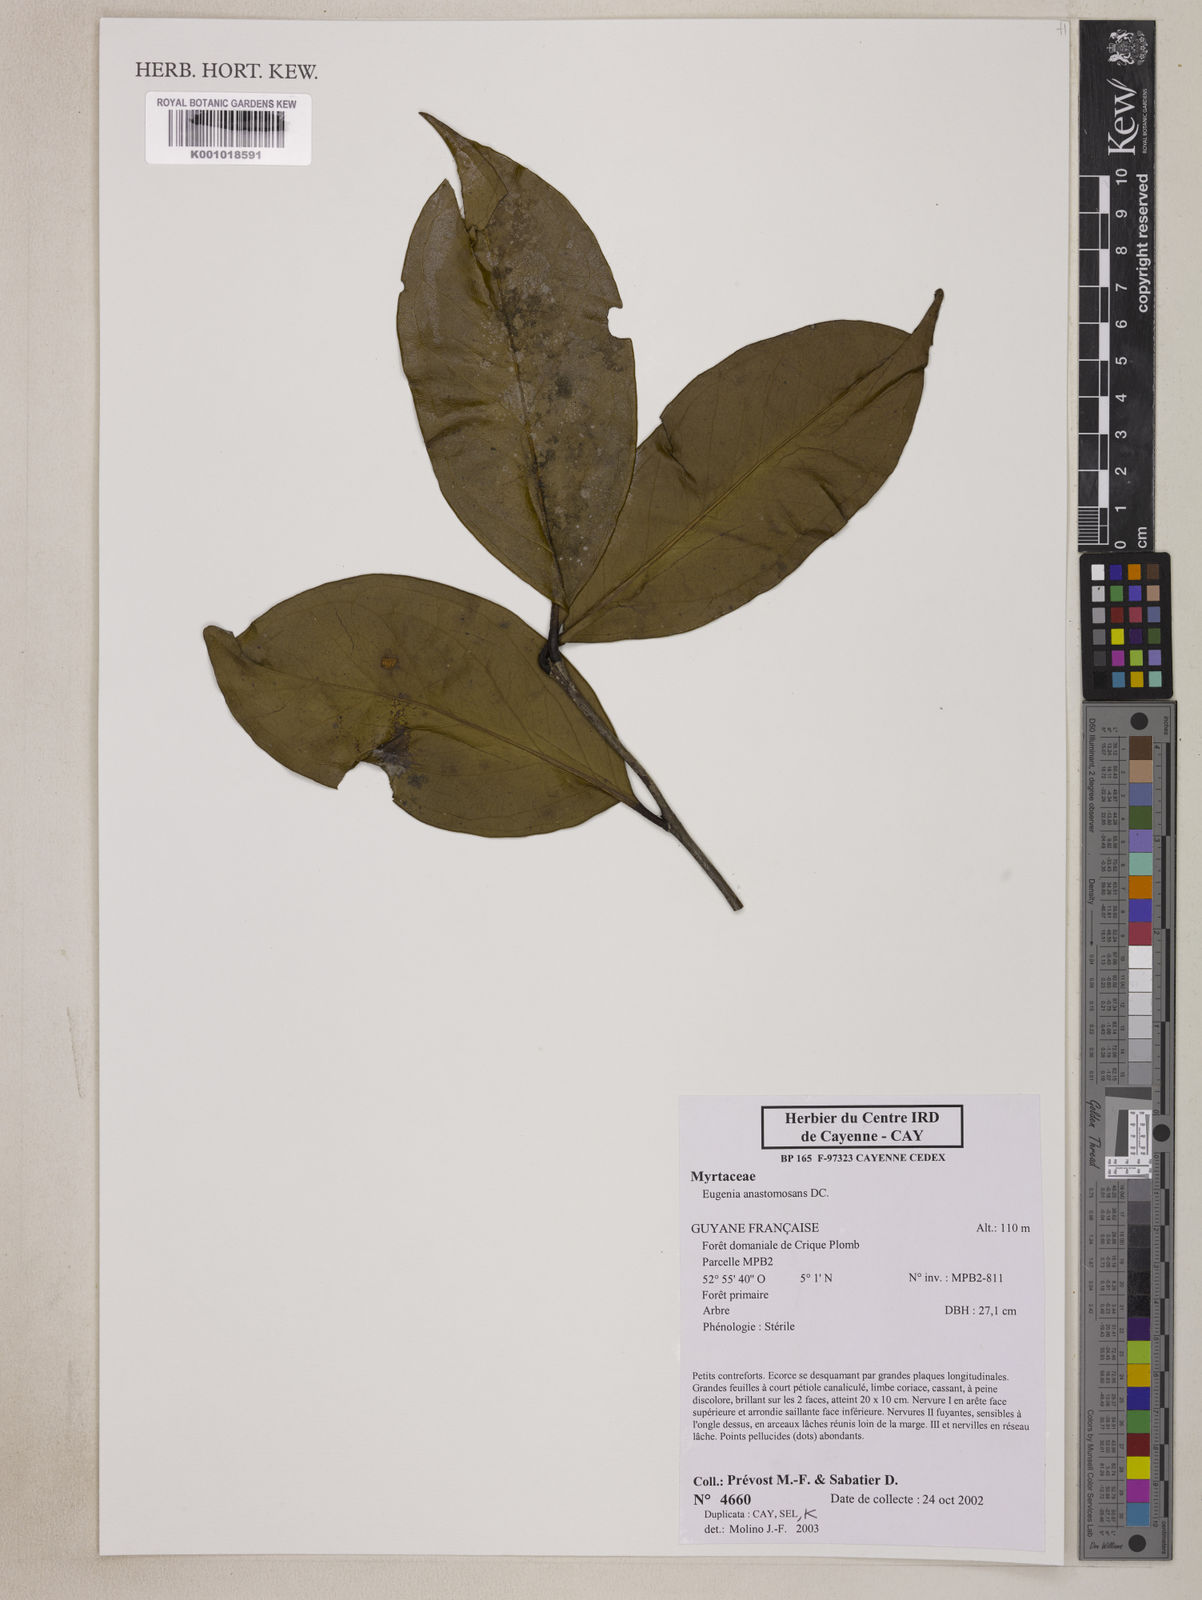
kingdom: Plantae
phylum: Tracheophyta
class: Magnoliopsida
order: Myrtales
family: Myrtaceae
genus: Eugenia
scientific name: Eugenia anastomosans
